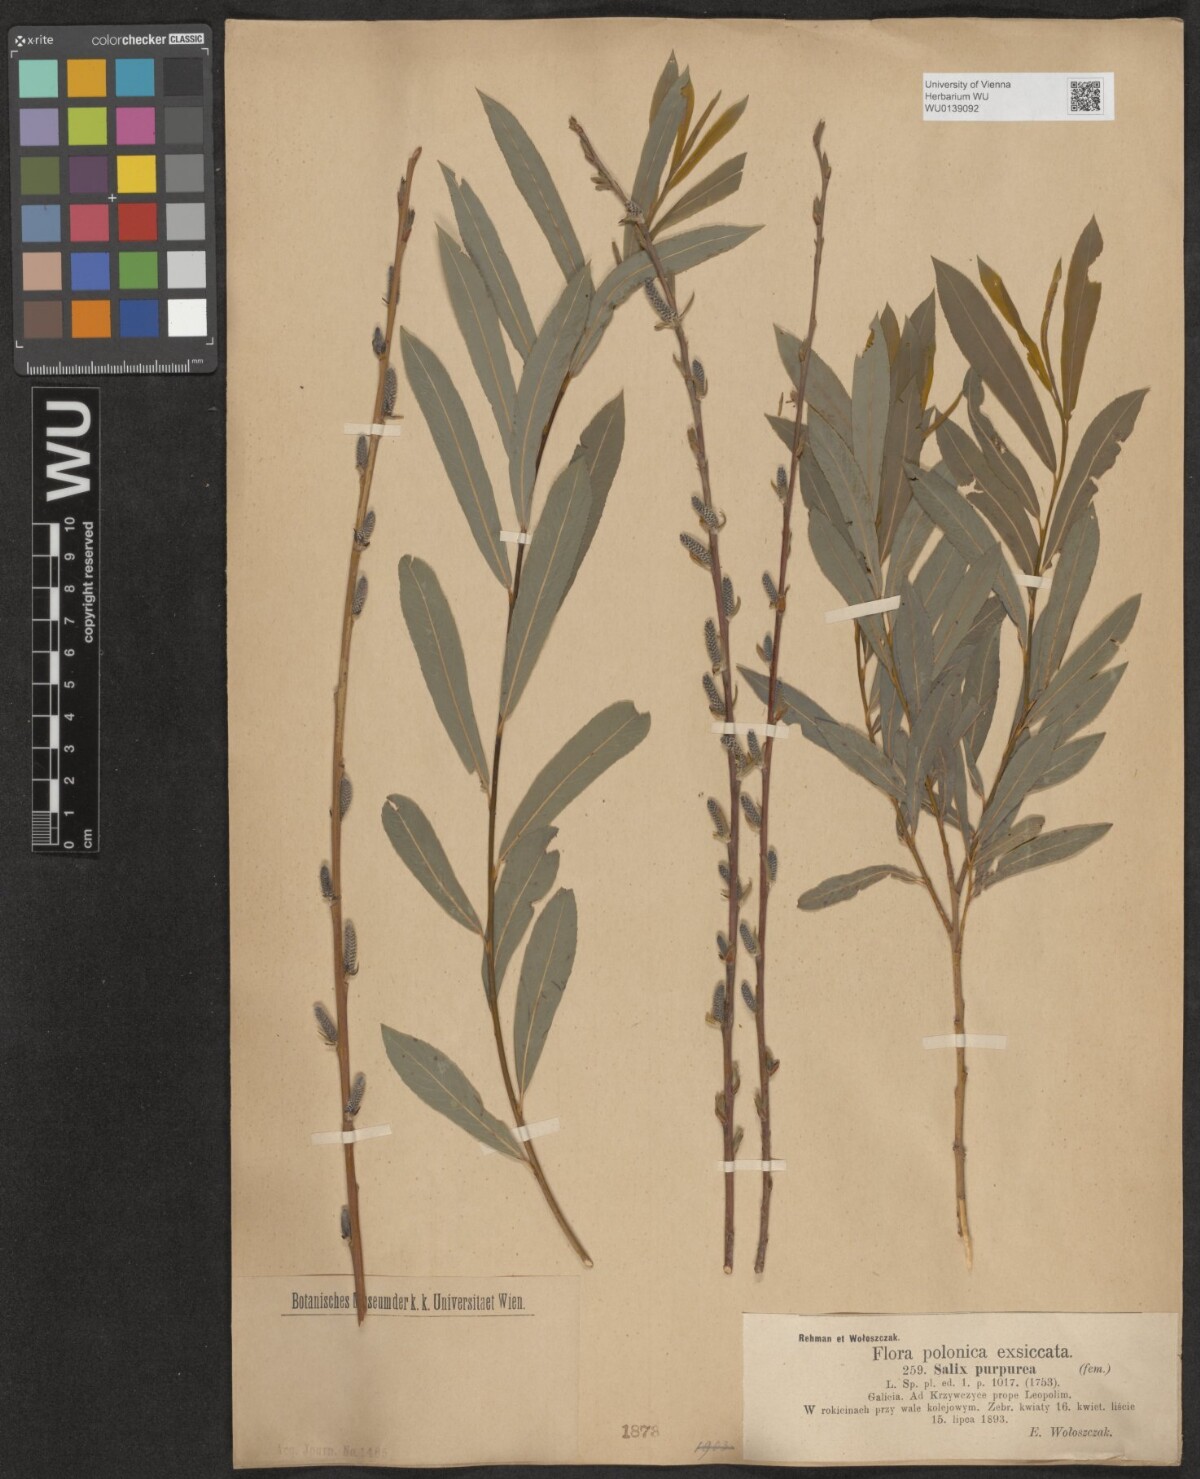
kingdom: Plantae
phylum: Tracheophyta
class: Magnoliopsida
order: Malpighiales
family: Salicaceae
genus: Salix
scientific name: Salix purpurea
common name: Purple willow
